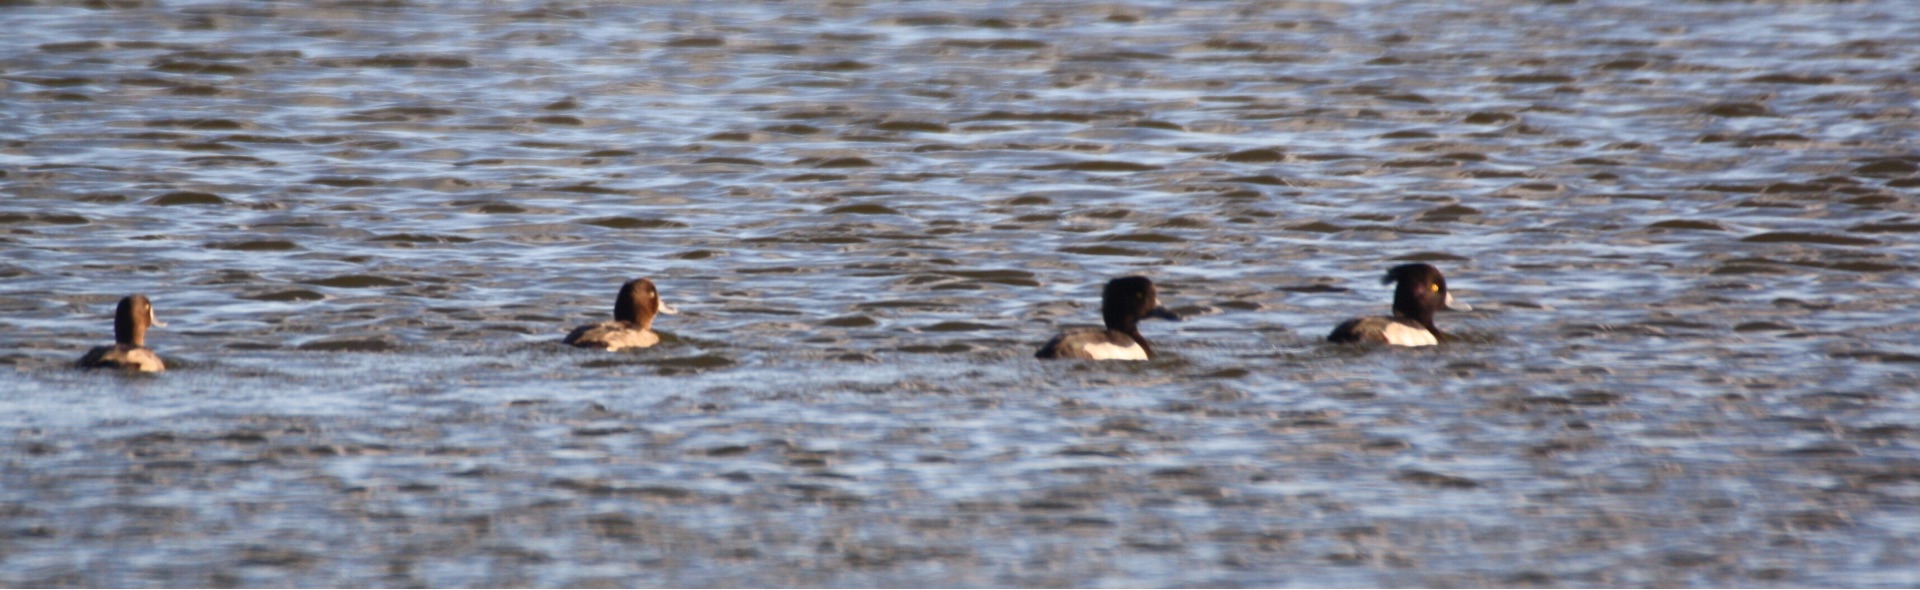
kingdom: Animalia
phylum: Chordata
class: Aves
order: Anseriformes
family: Anatidae
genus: Aythya
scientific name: Aythya fuligula
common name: Troldand
